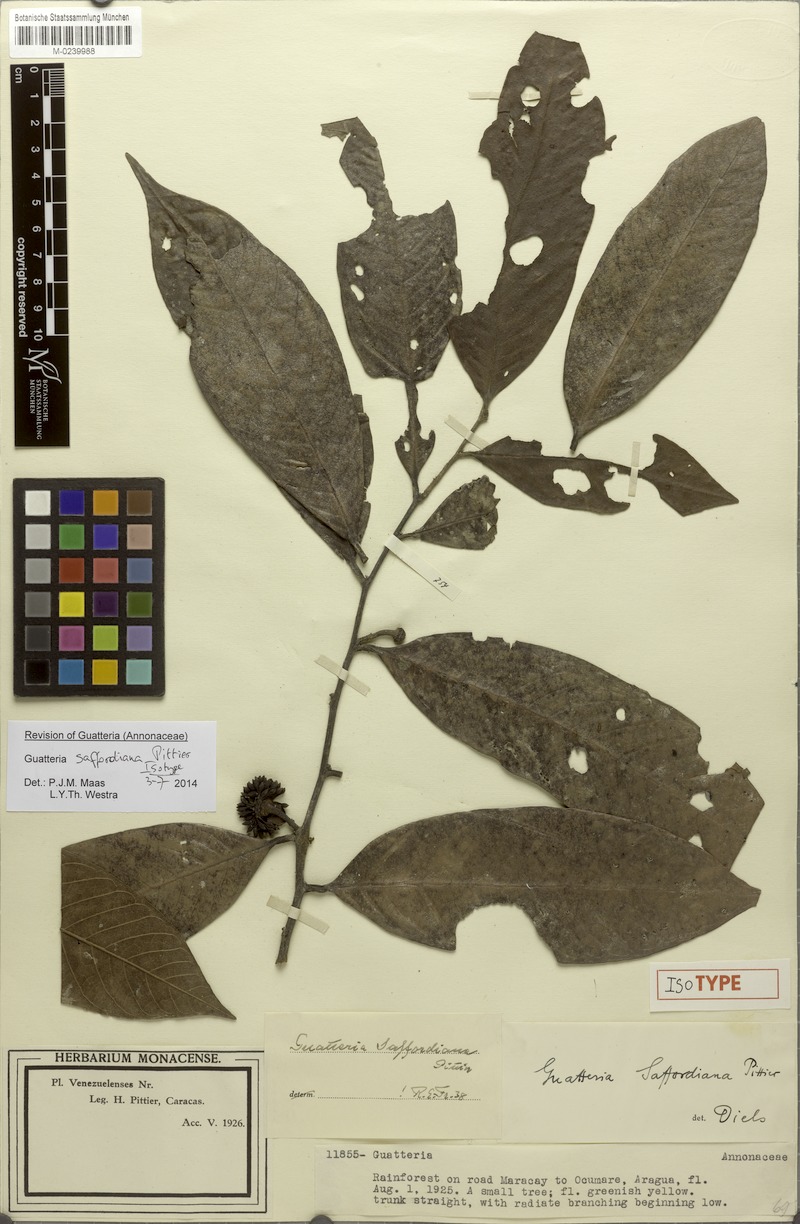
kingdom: Plantae
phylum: Tracheophyta
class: Magnoliopsida
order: Magnoliales
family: Annonaceae
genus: Guatteria
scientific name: Guatteria saffordiana
